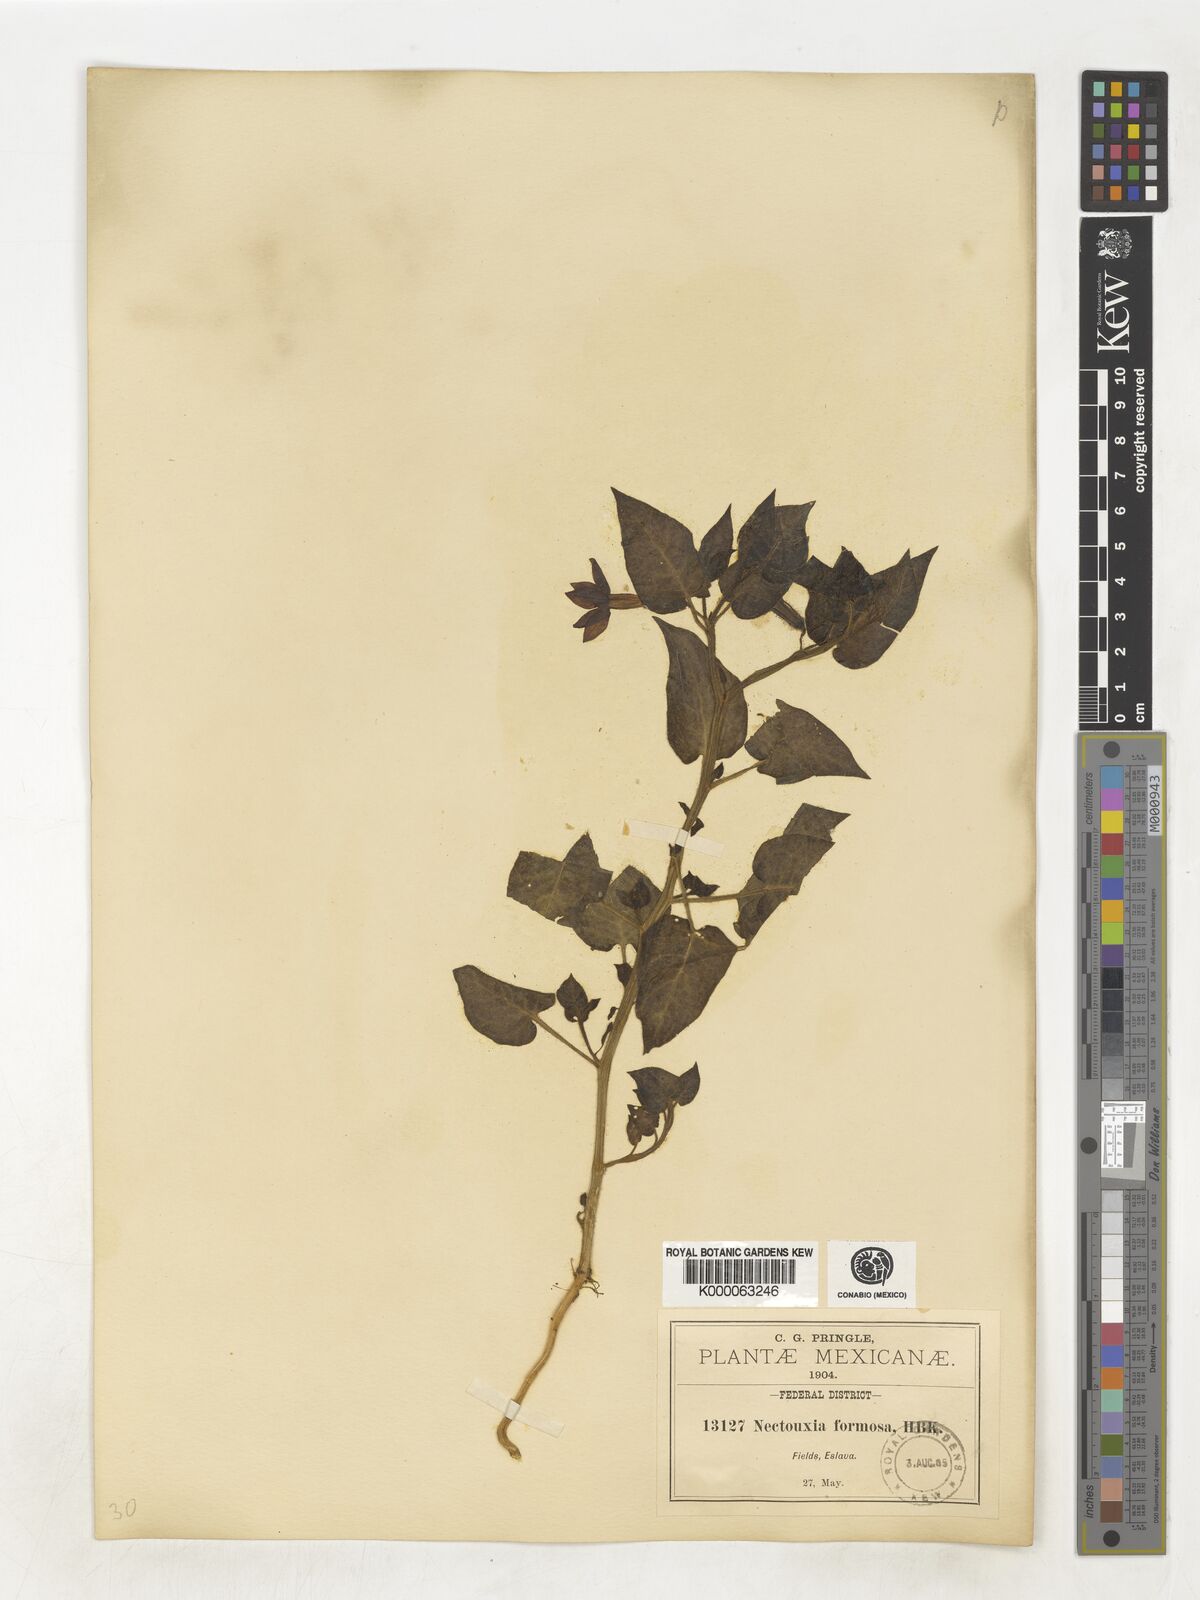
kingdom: Plantae
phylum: Tracheophyta
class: Magnoliopsida
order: Solanales
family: Solanaceae
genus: Nectouxia
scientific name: Nectouxia formosa
